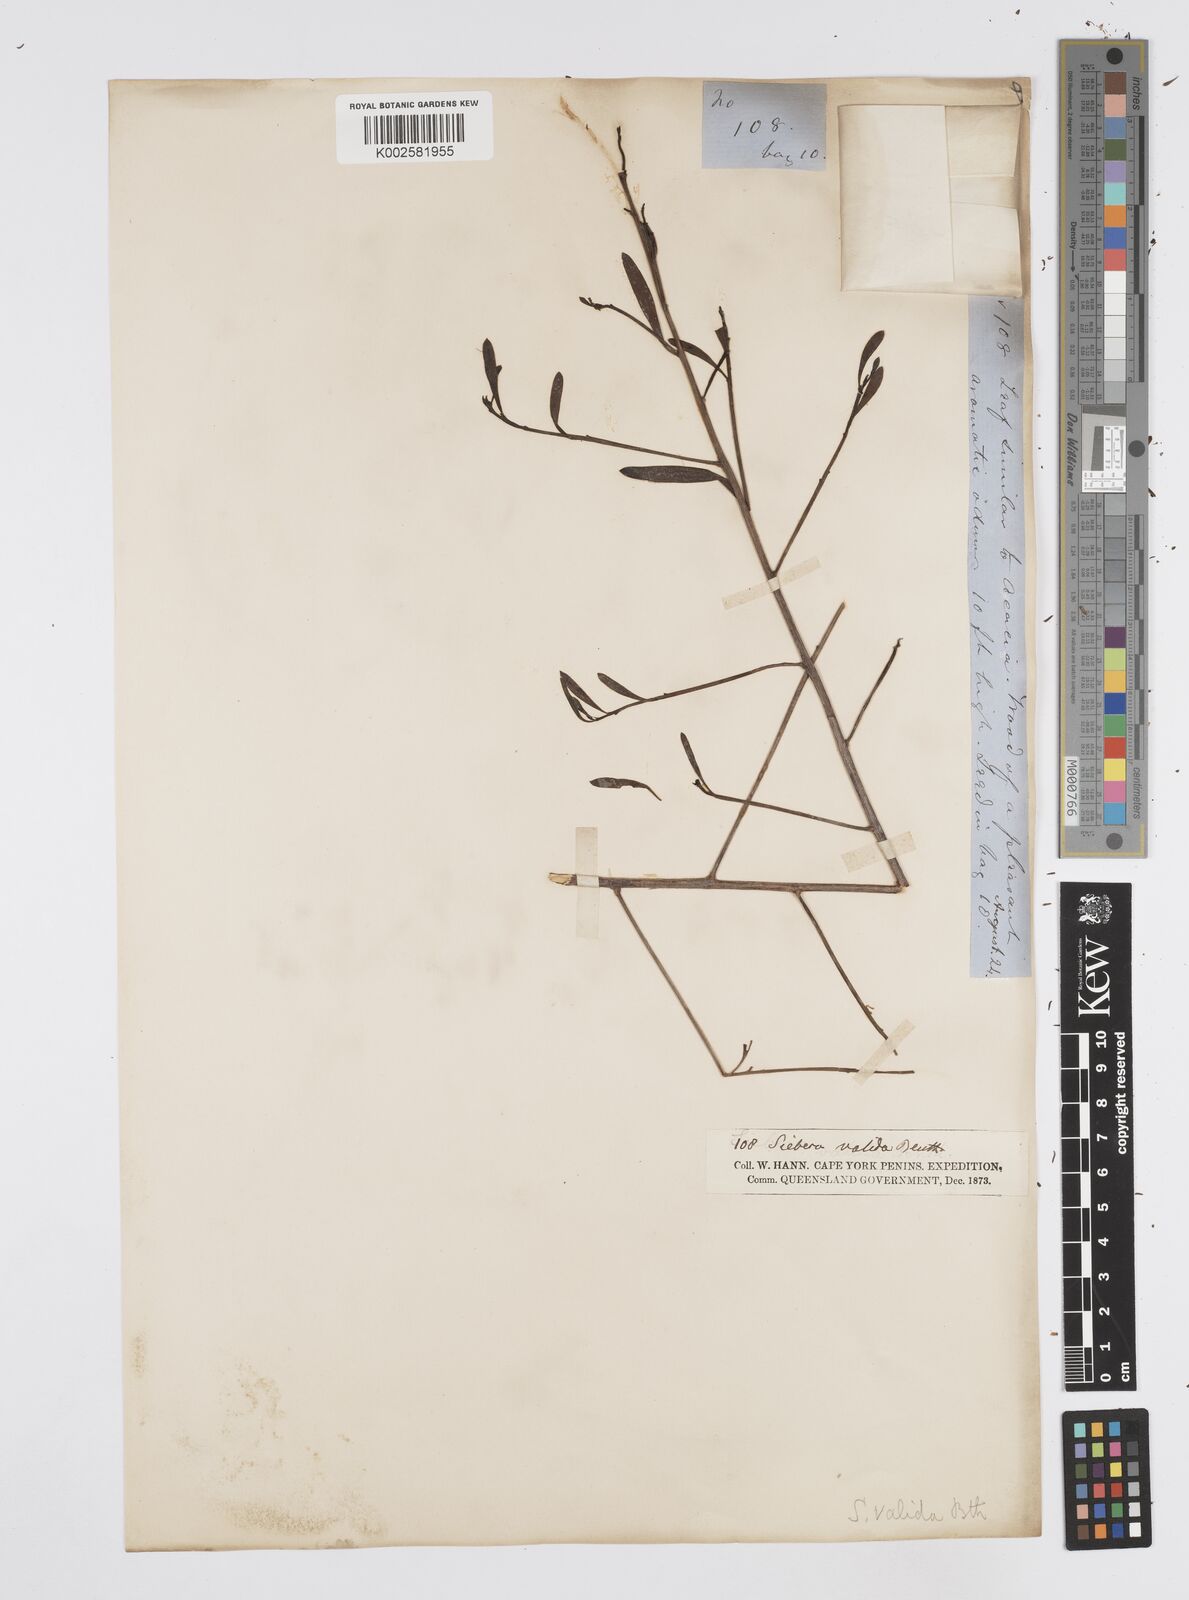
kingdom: Plantae
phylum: Tracheophyta
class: Magnoliopsida
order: Apiales
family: Apiaceae
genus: Platysace
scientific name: Platysace valida
